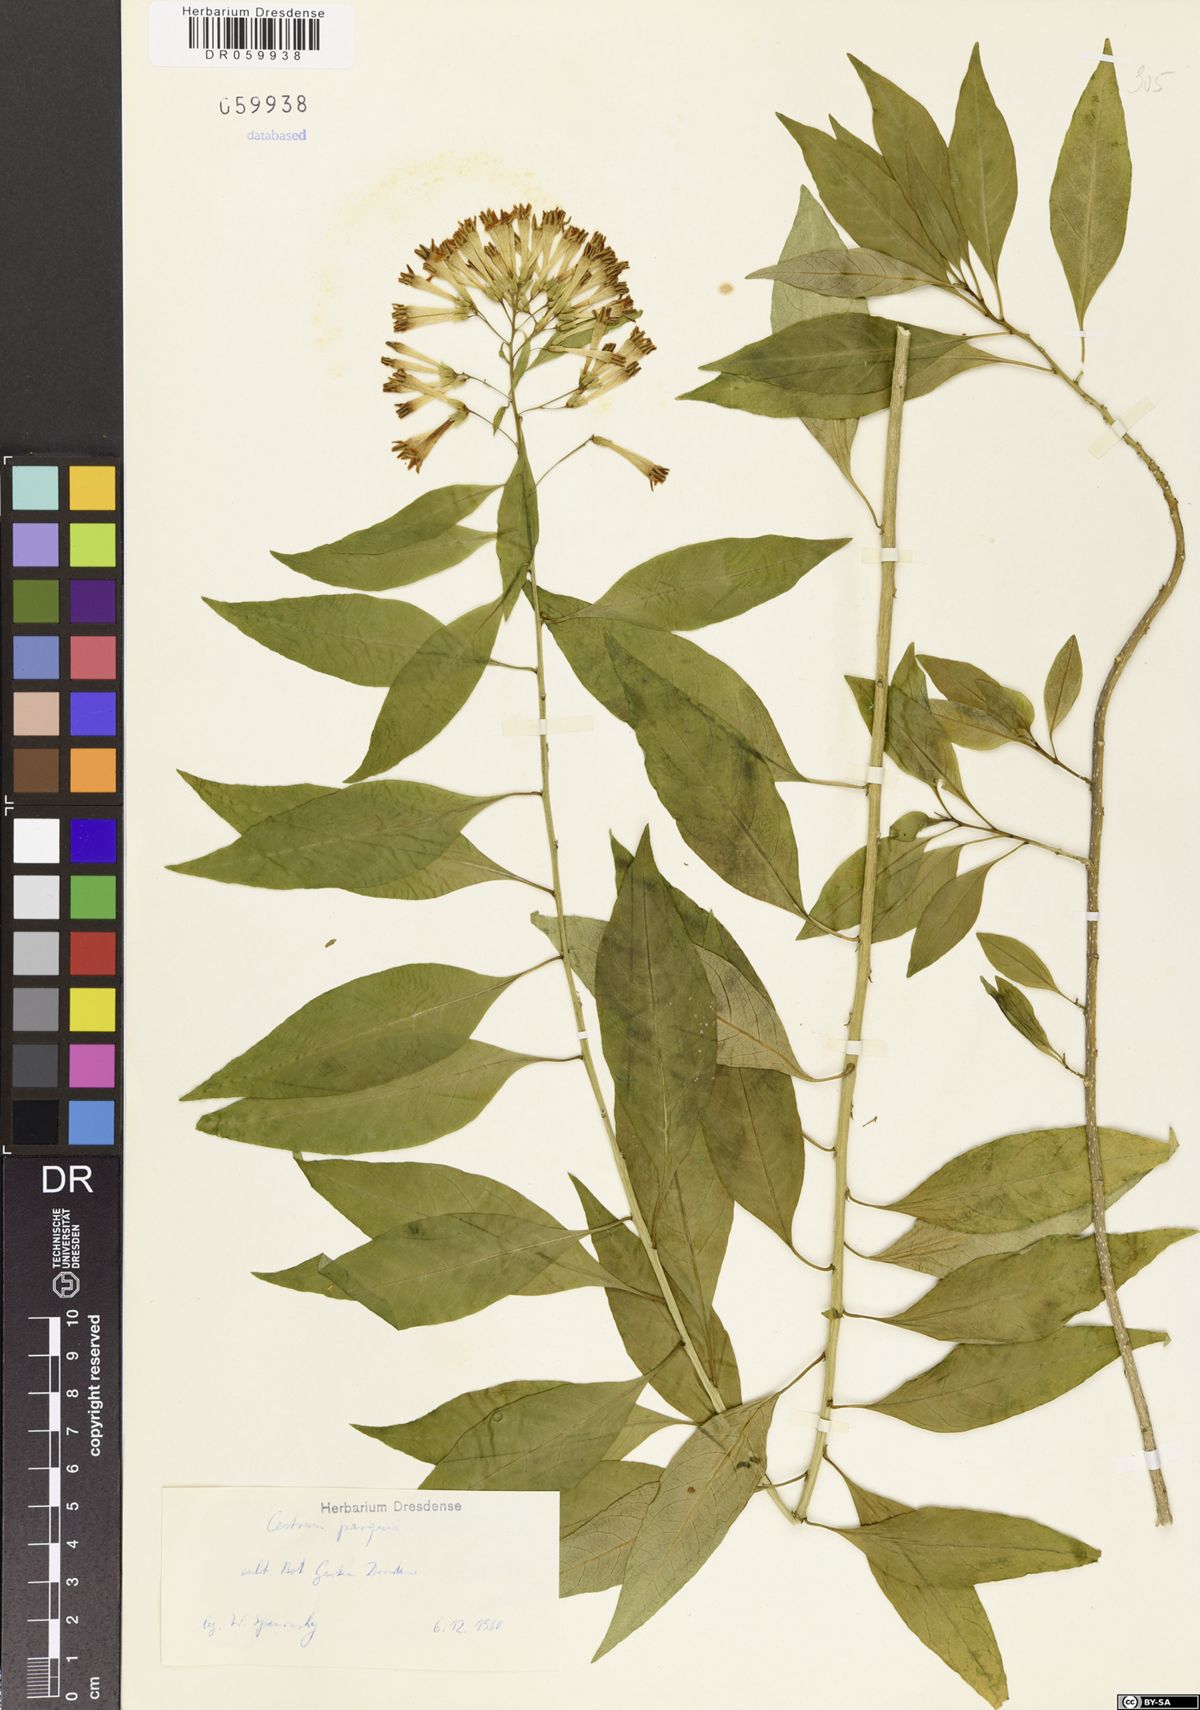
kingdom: Plantae
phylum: Tracheophyta
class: Magnoliopsida
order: Solanales
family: Solanaceae
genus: Cestrum
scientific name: Cestrum thyrsoideum
